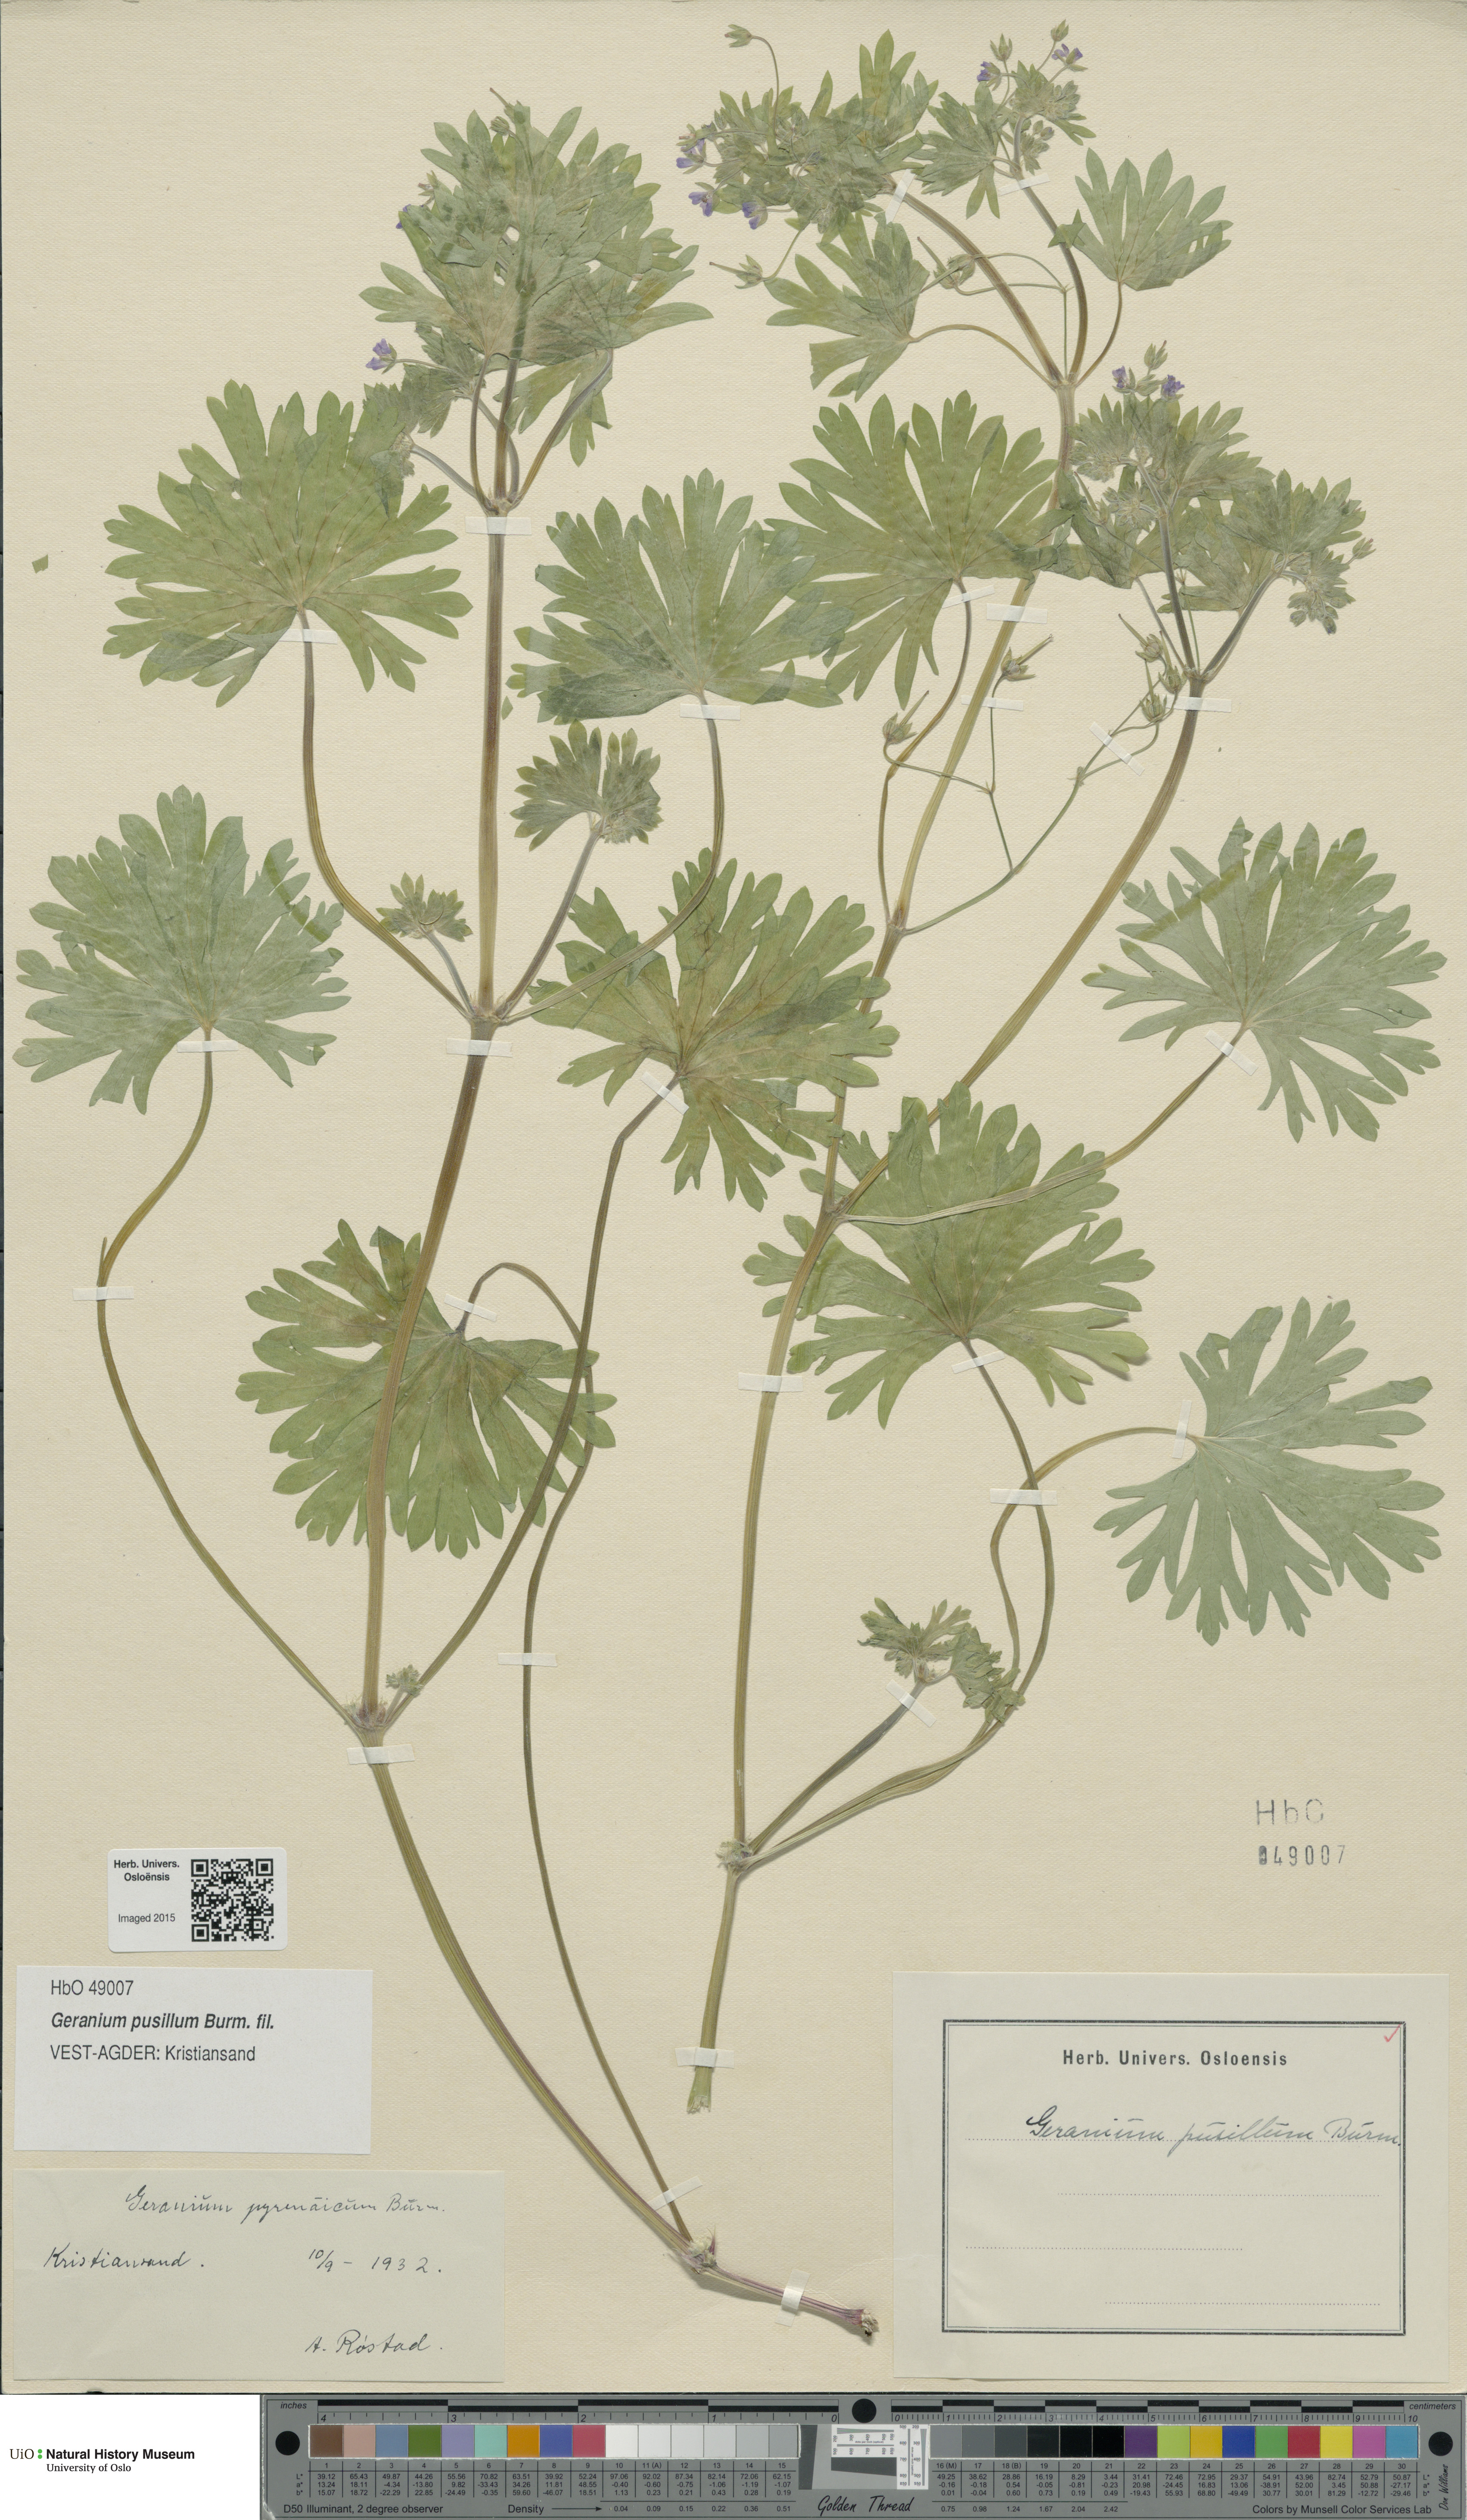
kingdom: Plantae
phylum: Tracheophyta
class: Magnoliopsida
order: Geraniales
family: Geraniaceae
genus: Geranium
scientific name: Geranium pusillum
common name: Small geranium
